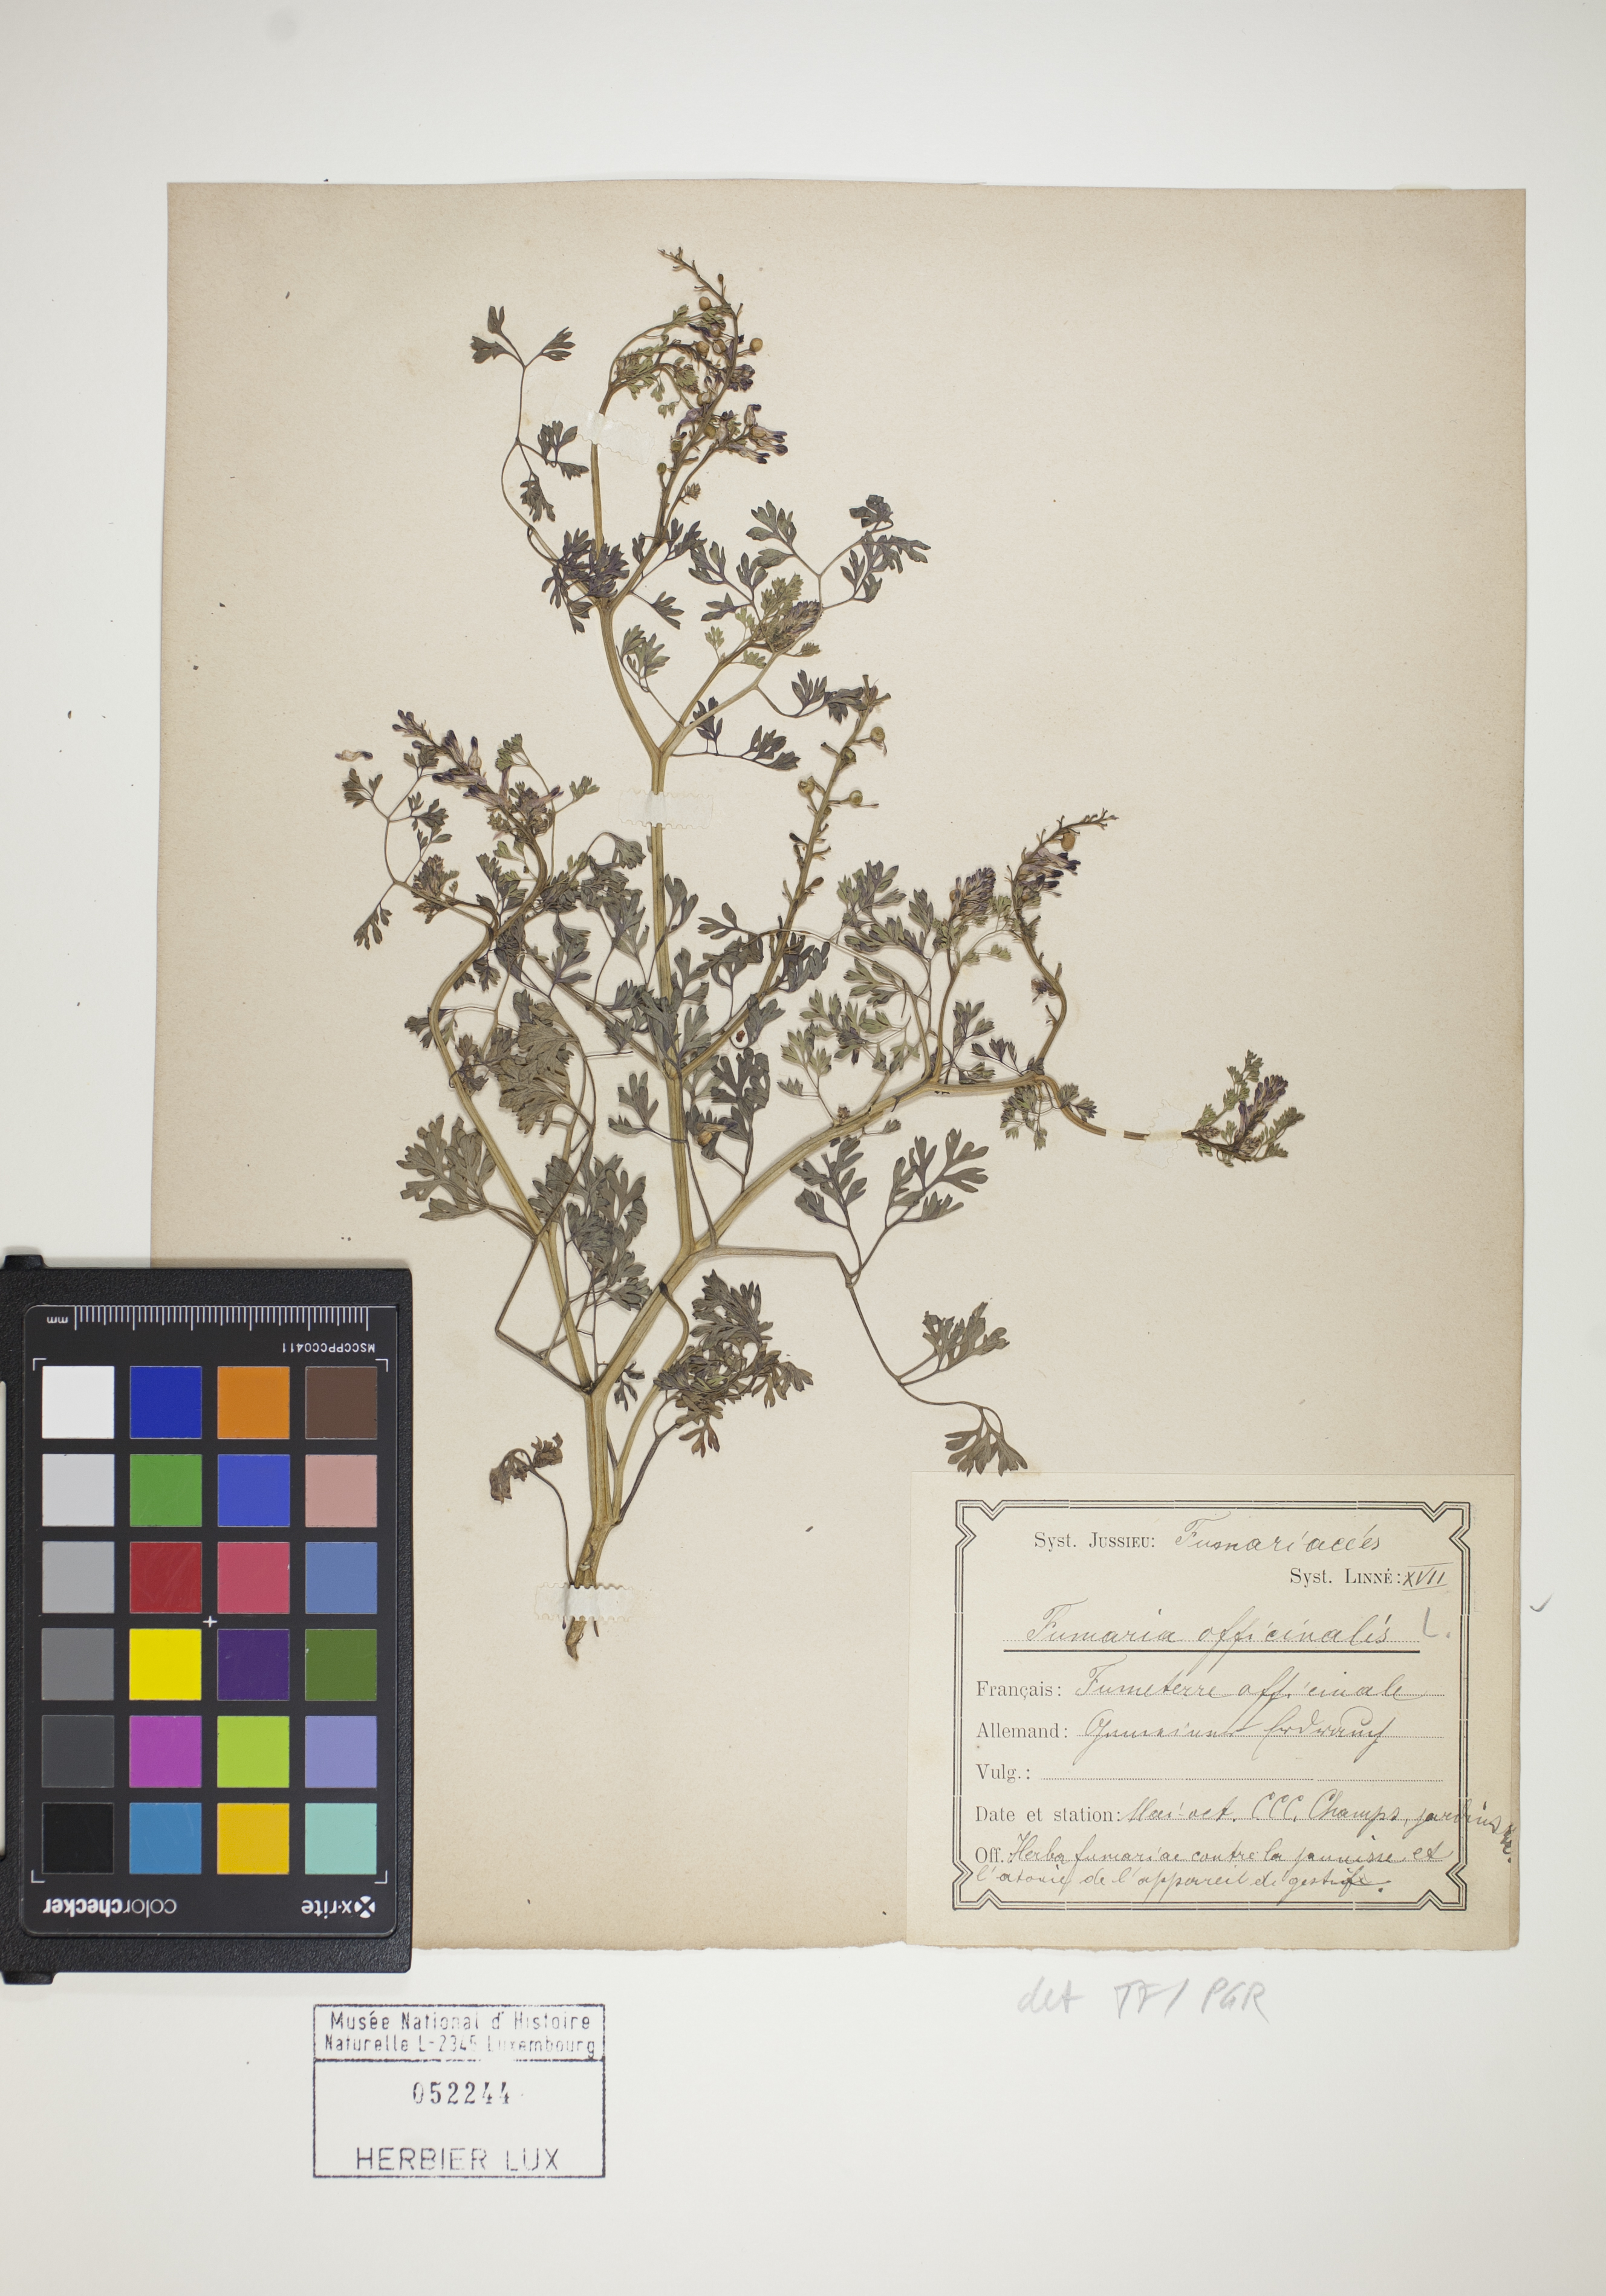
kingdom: Plantae
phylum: Tracheophyta
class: Magnoliopsida
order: Ranunculales
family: Papaveraceae
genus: Fumaria
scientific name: Fumaria officinalis
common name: Common fumitory
